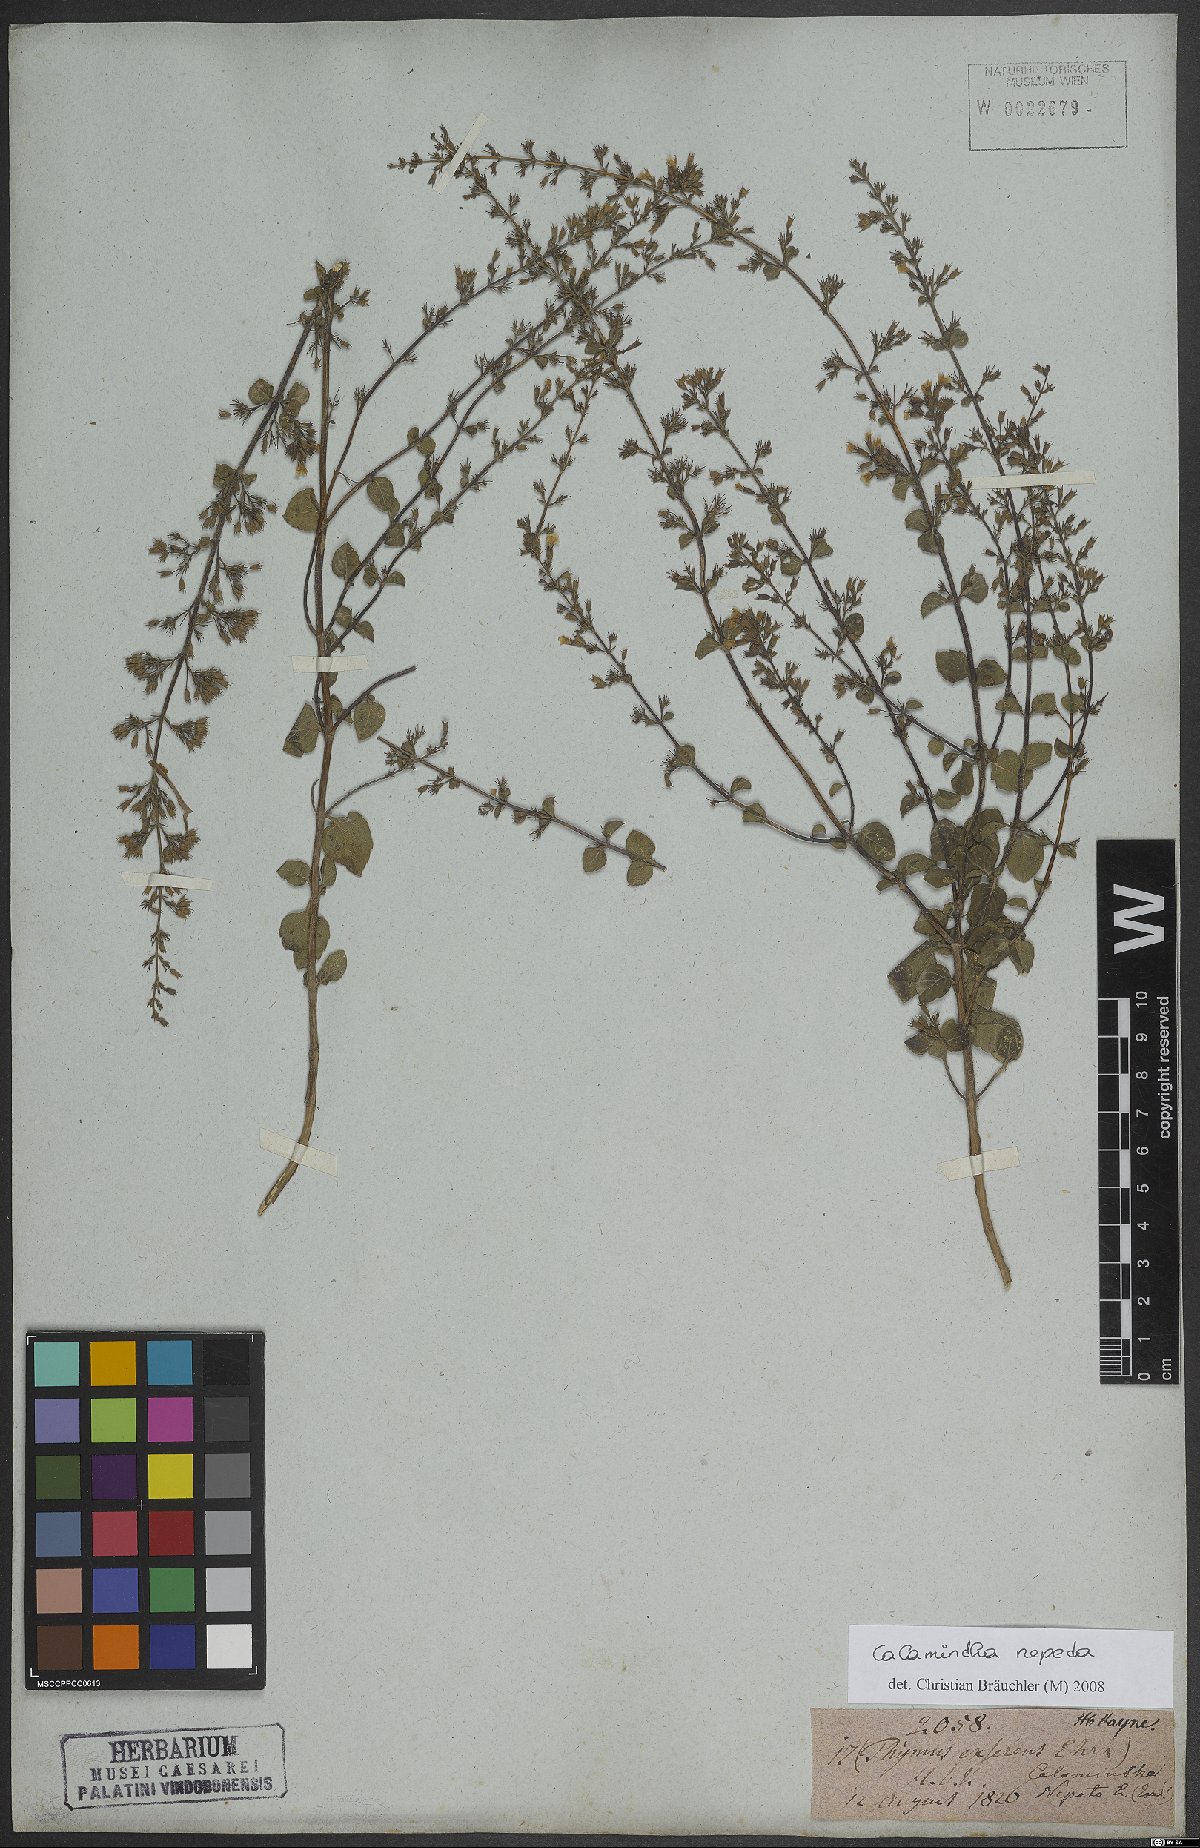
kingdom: Plantae
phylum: Tracheophyta
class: Magnoliopsida
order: Lamiales
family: Lamiaceae
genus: Clinopodium
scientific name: Clinopodium nepeta
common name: Lesser calamint
